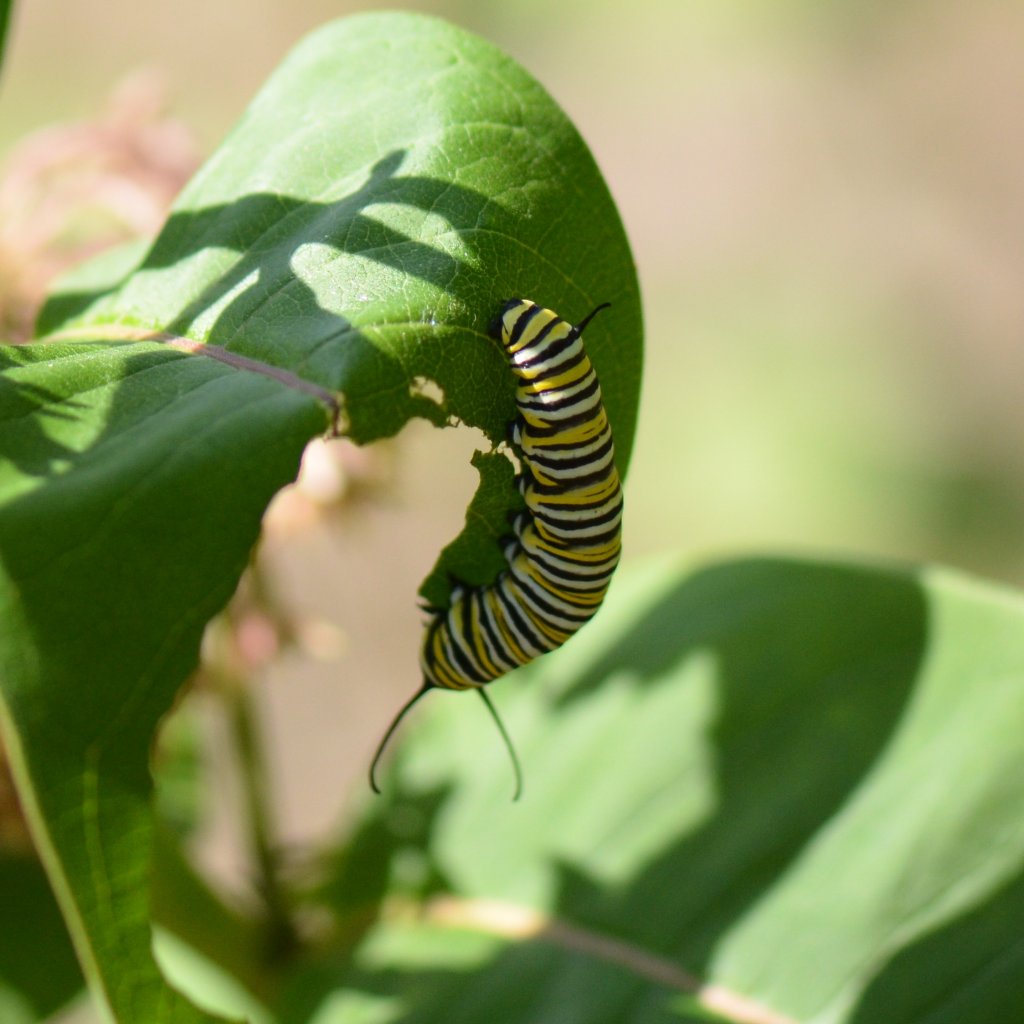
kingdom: Animalia
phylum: Arthropoda
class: Insecta
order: Lepidoptera
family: Nymphalidae
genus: Danaus
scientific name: Danaus plexippus
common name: Monarch
